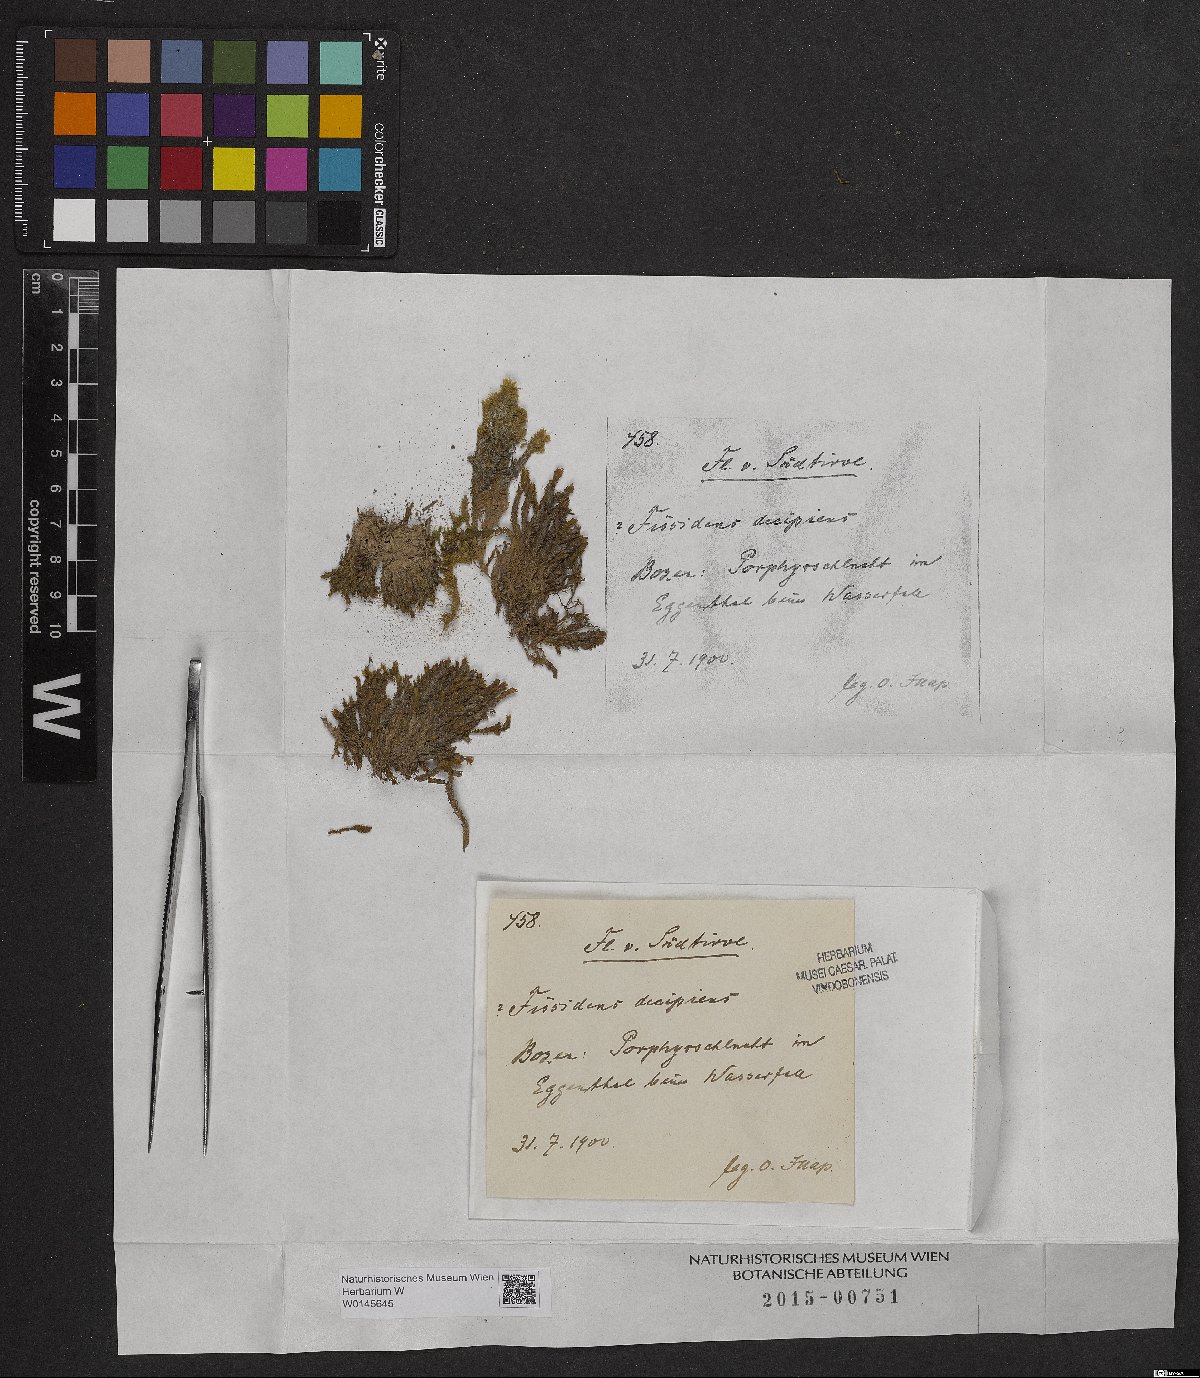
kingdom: Plantae
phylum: Bryophyta
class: Bryopsida
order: Dicranales
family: Fissidentaceae
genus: Fissidens
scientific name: Fissidens dubius
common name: Rock pocket moss
